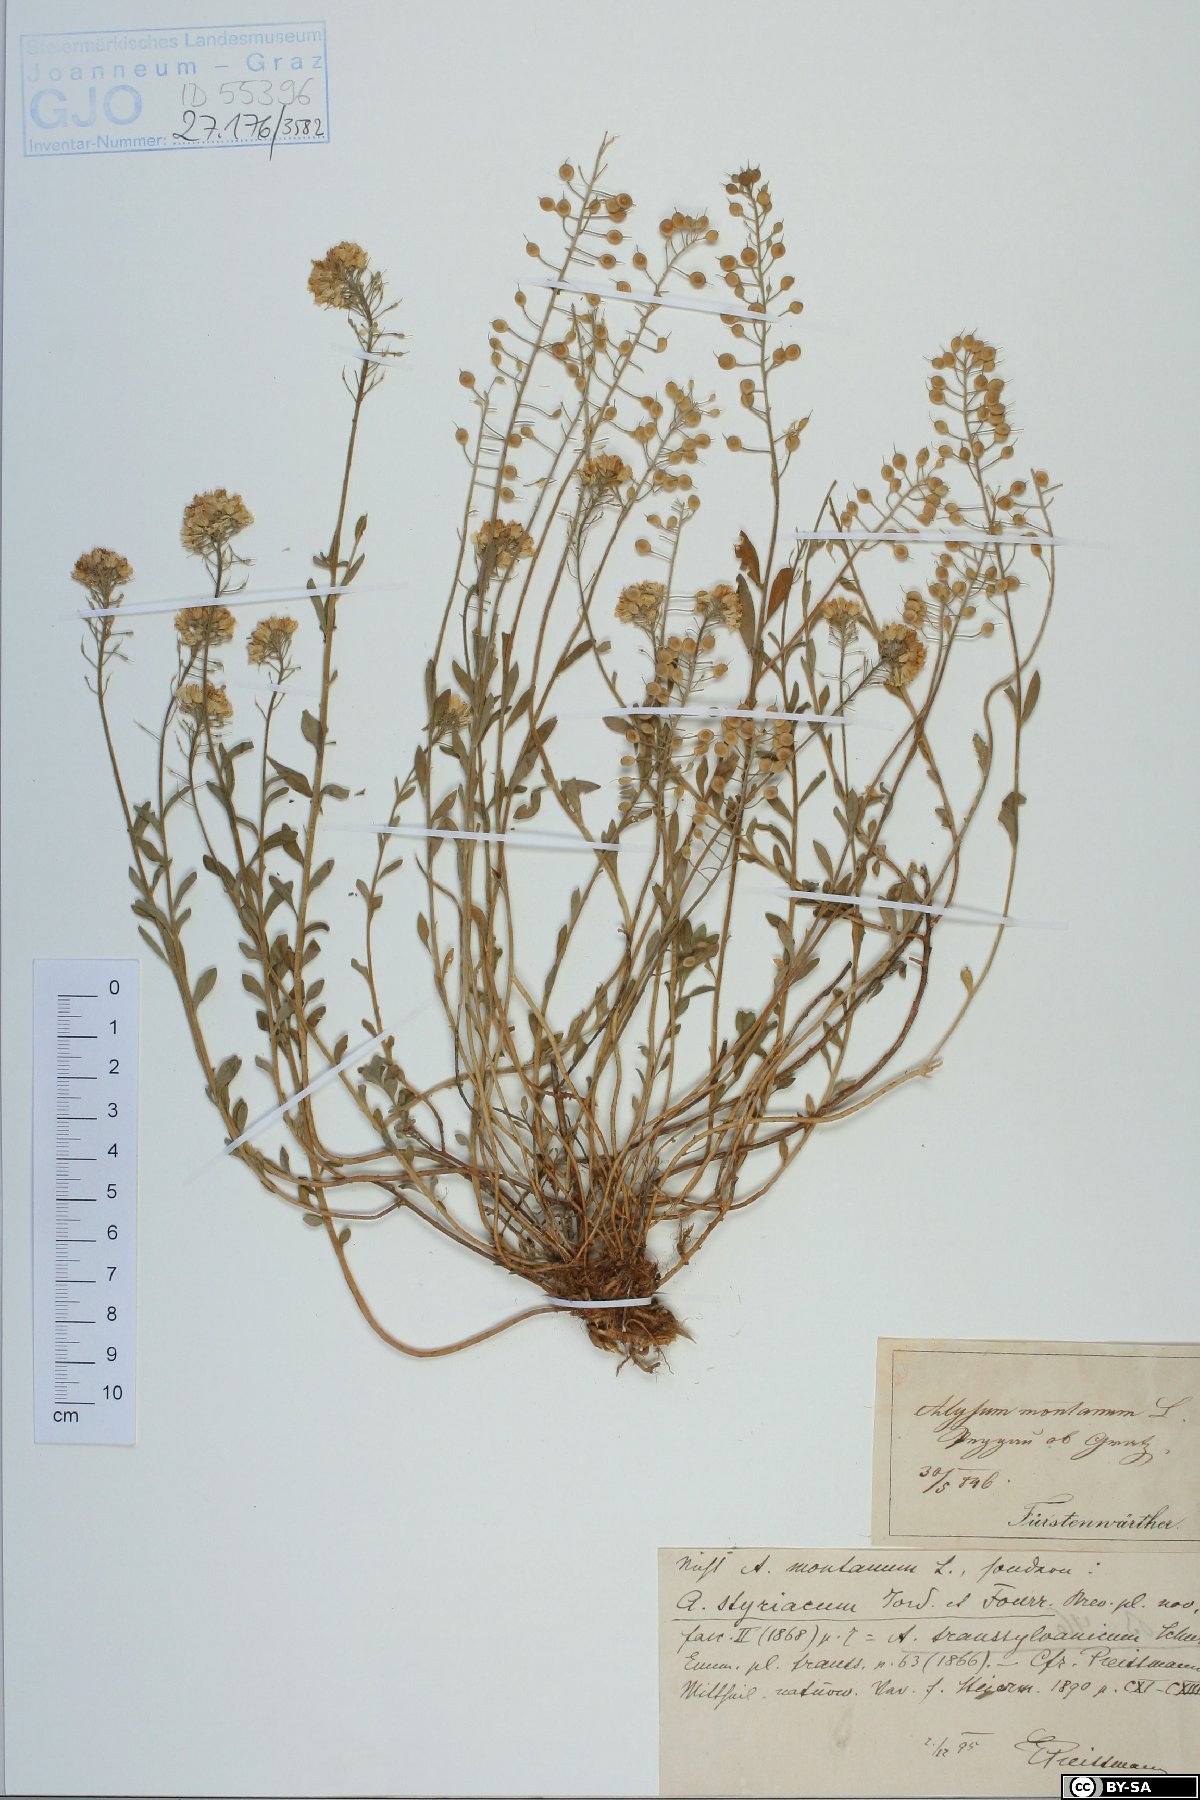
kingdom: Plantae
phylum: Tracheophyta
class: Magnoliopsida
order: Brassicales
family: Brassicaceae
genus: Alyssum
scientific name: Alyssum repens
